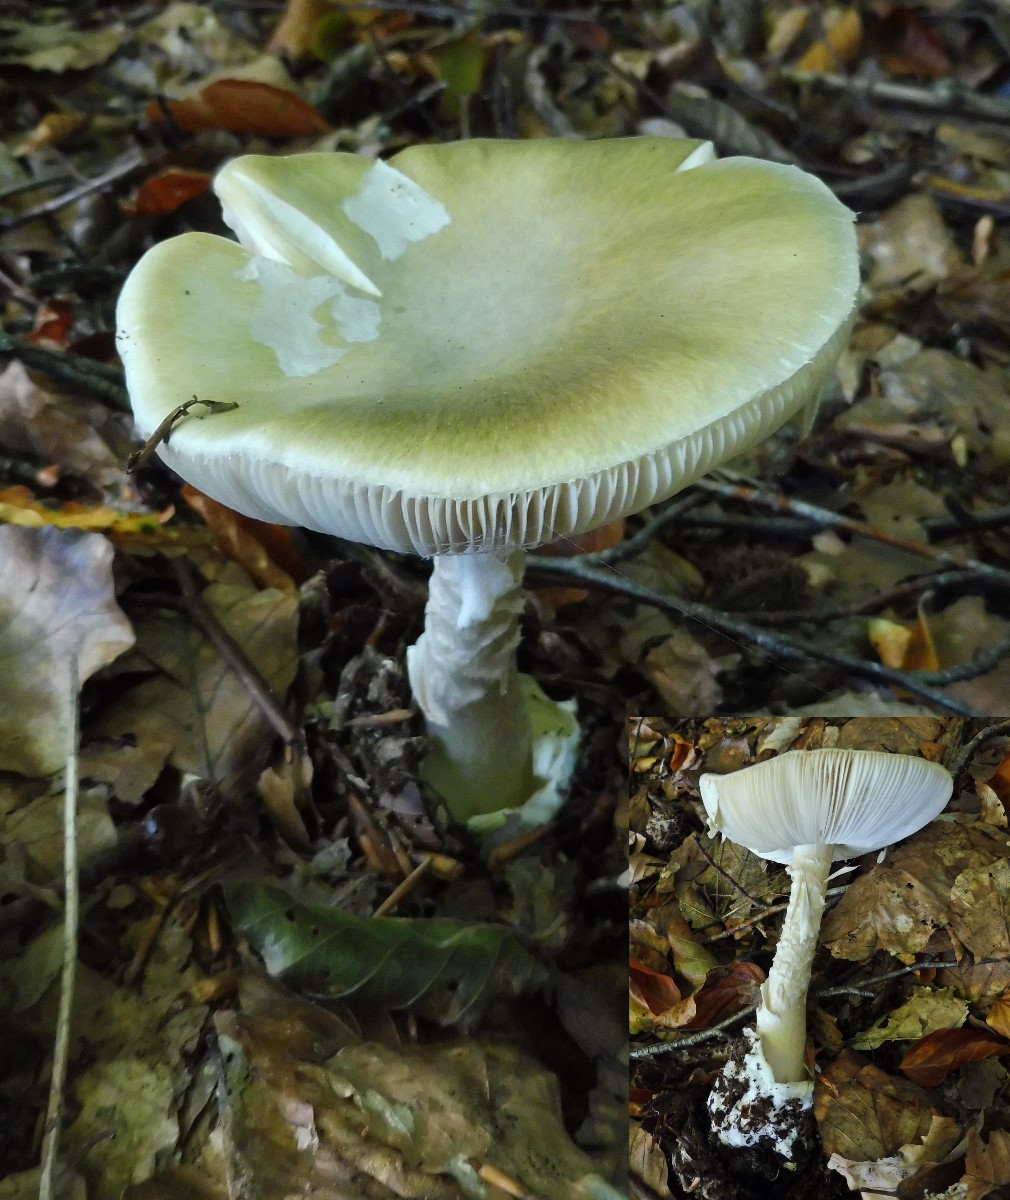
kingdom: Fungi
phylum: Basidiomycota
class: Agaricomycetes
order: Agaricales
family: Amanitaceae
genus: Amanita
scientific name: Amanita phalloides
